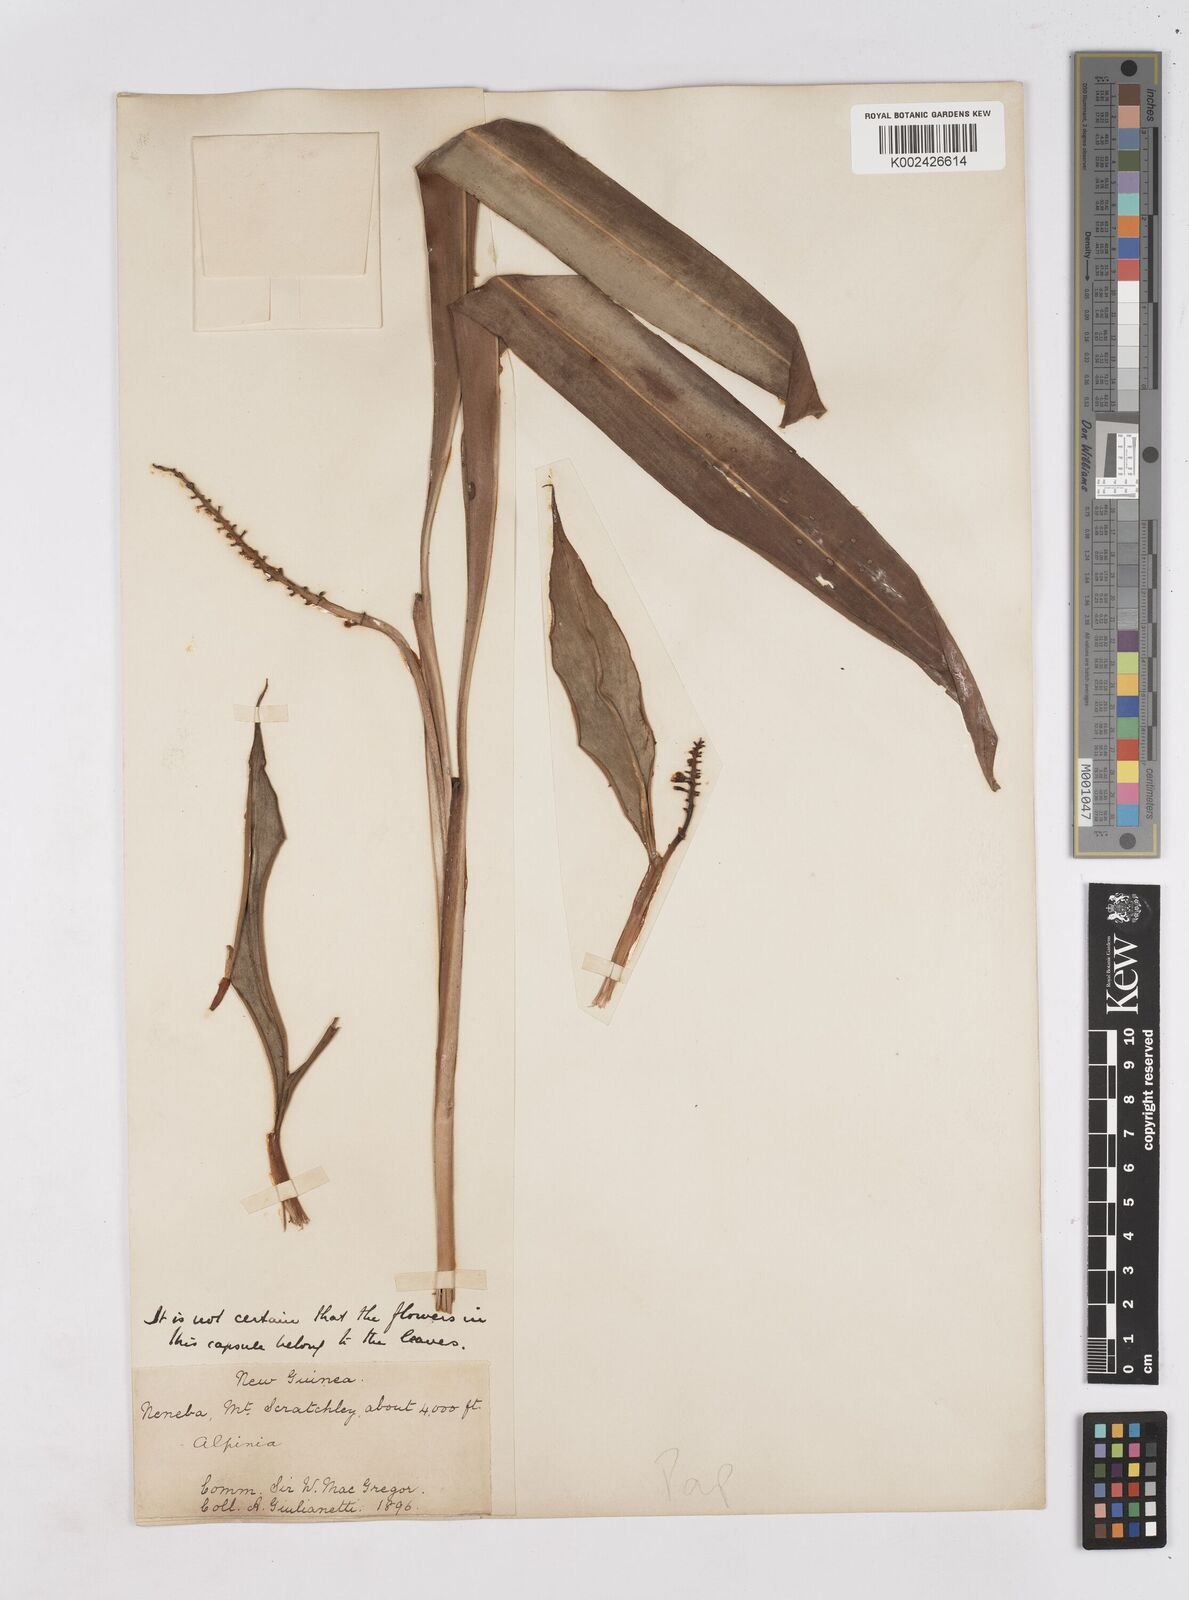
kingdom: Plantae
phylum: Tracheophyta
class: Liliopsida
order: Zingiberales
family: Zingiberaceae
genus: Riedelia
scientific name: Riedelia
